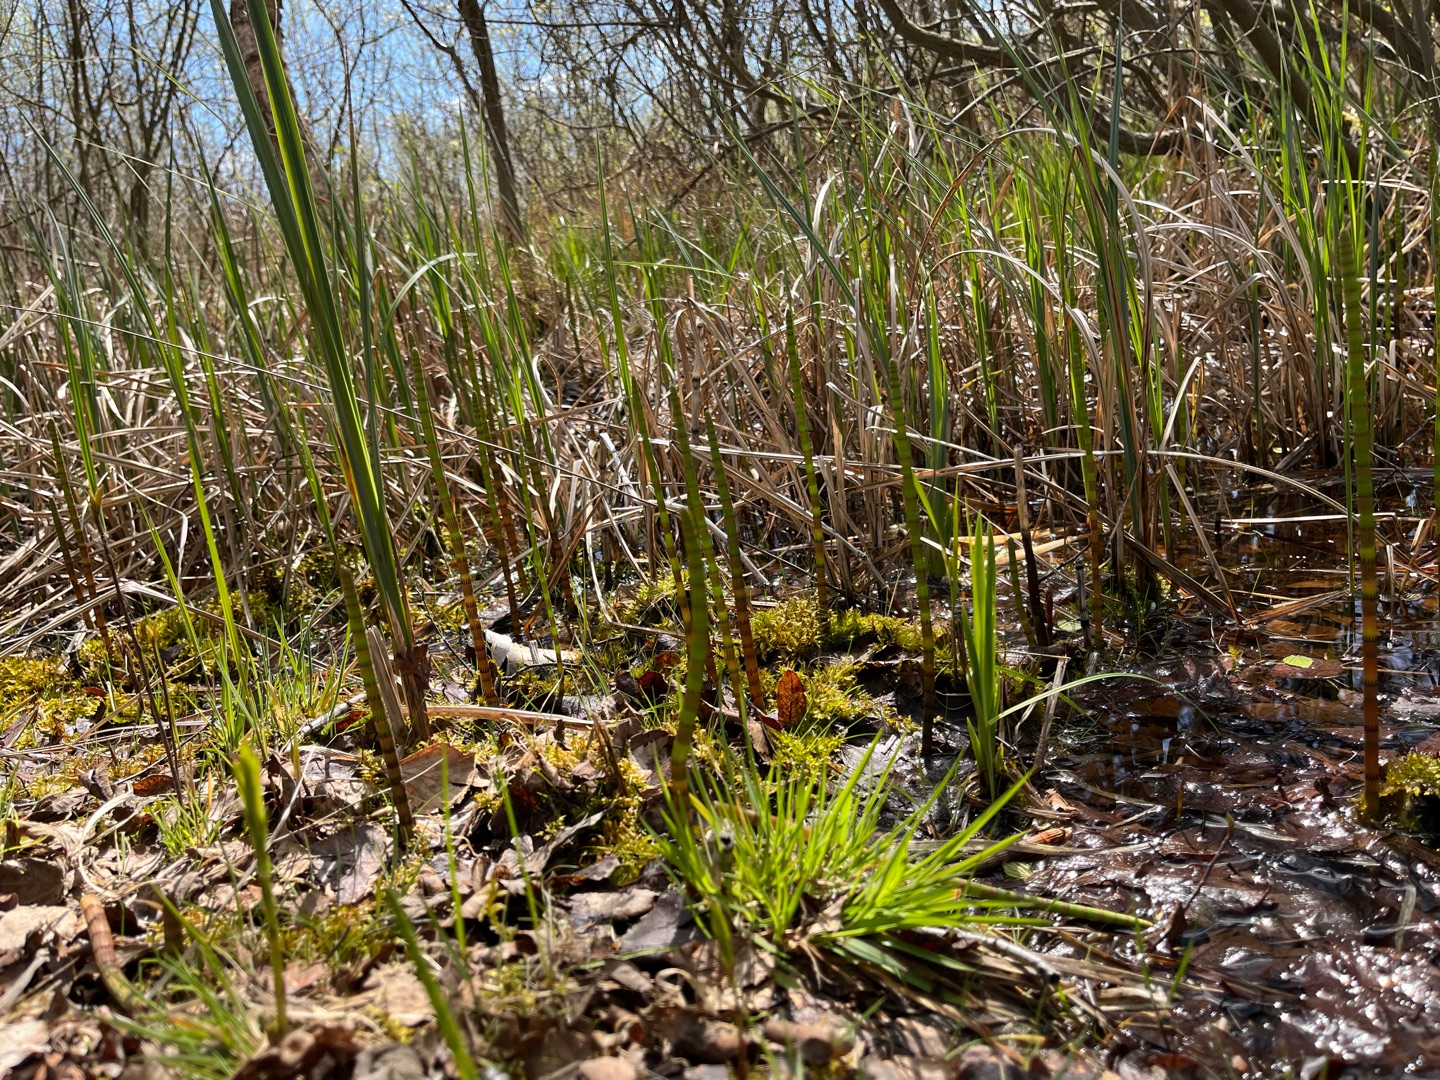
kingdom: Plantae
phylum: Tracheophyta
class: Polypodiopsida
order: Equisetales
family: Equisetaceae
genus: Equisetum
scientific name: Equisetum fluviatile
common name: Dynd-padderok
